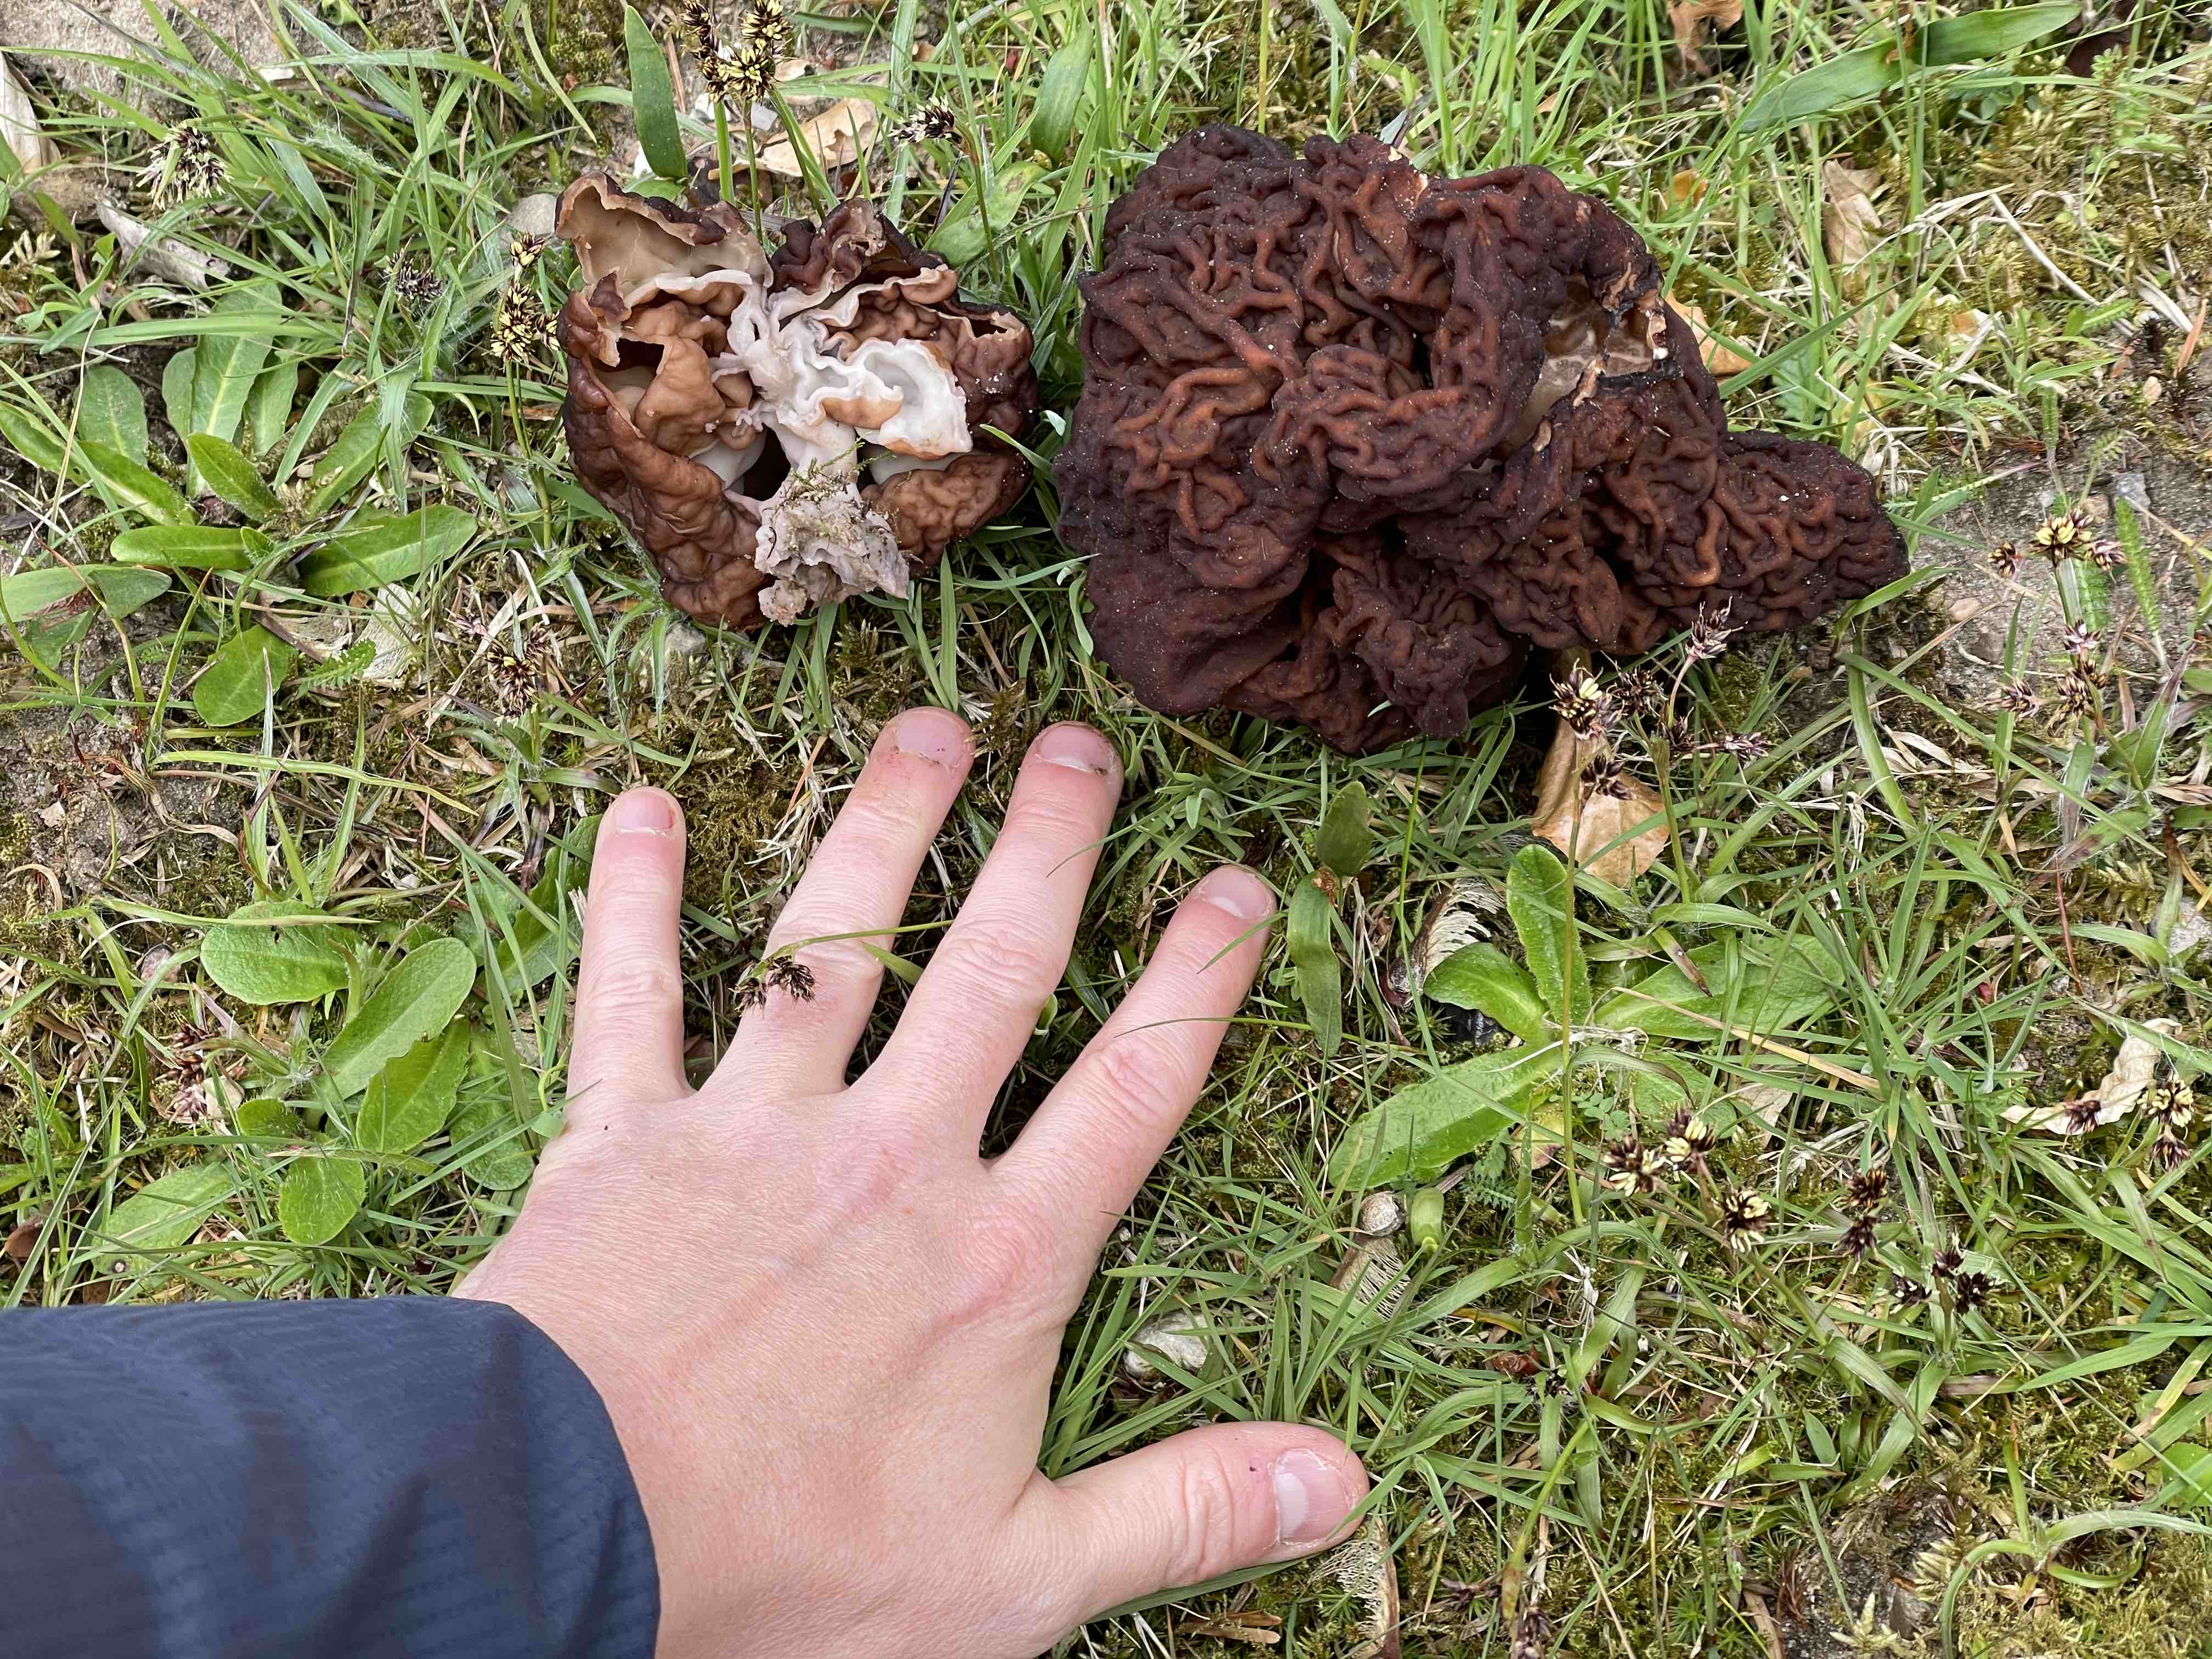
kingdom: Fungi
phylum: Ascomycota
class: Pezizomycetes
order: Pezizales
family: Discinaceae
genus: Gyromitra
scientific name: Gyromitra esculenta
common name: ægte stenmorkel
